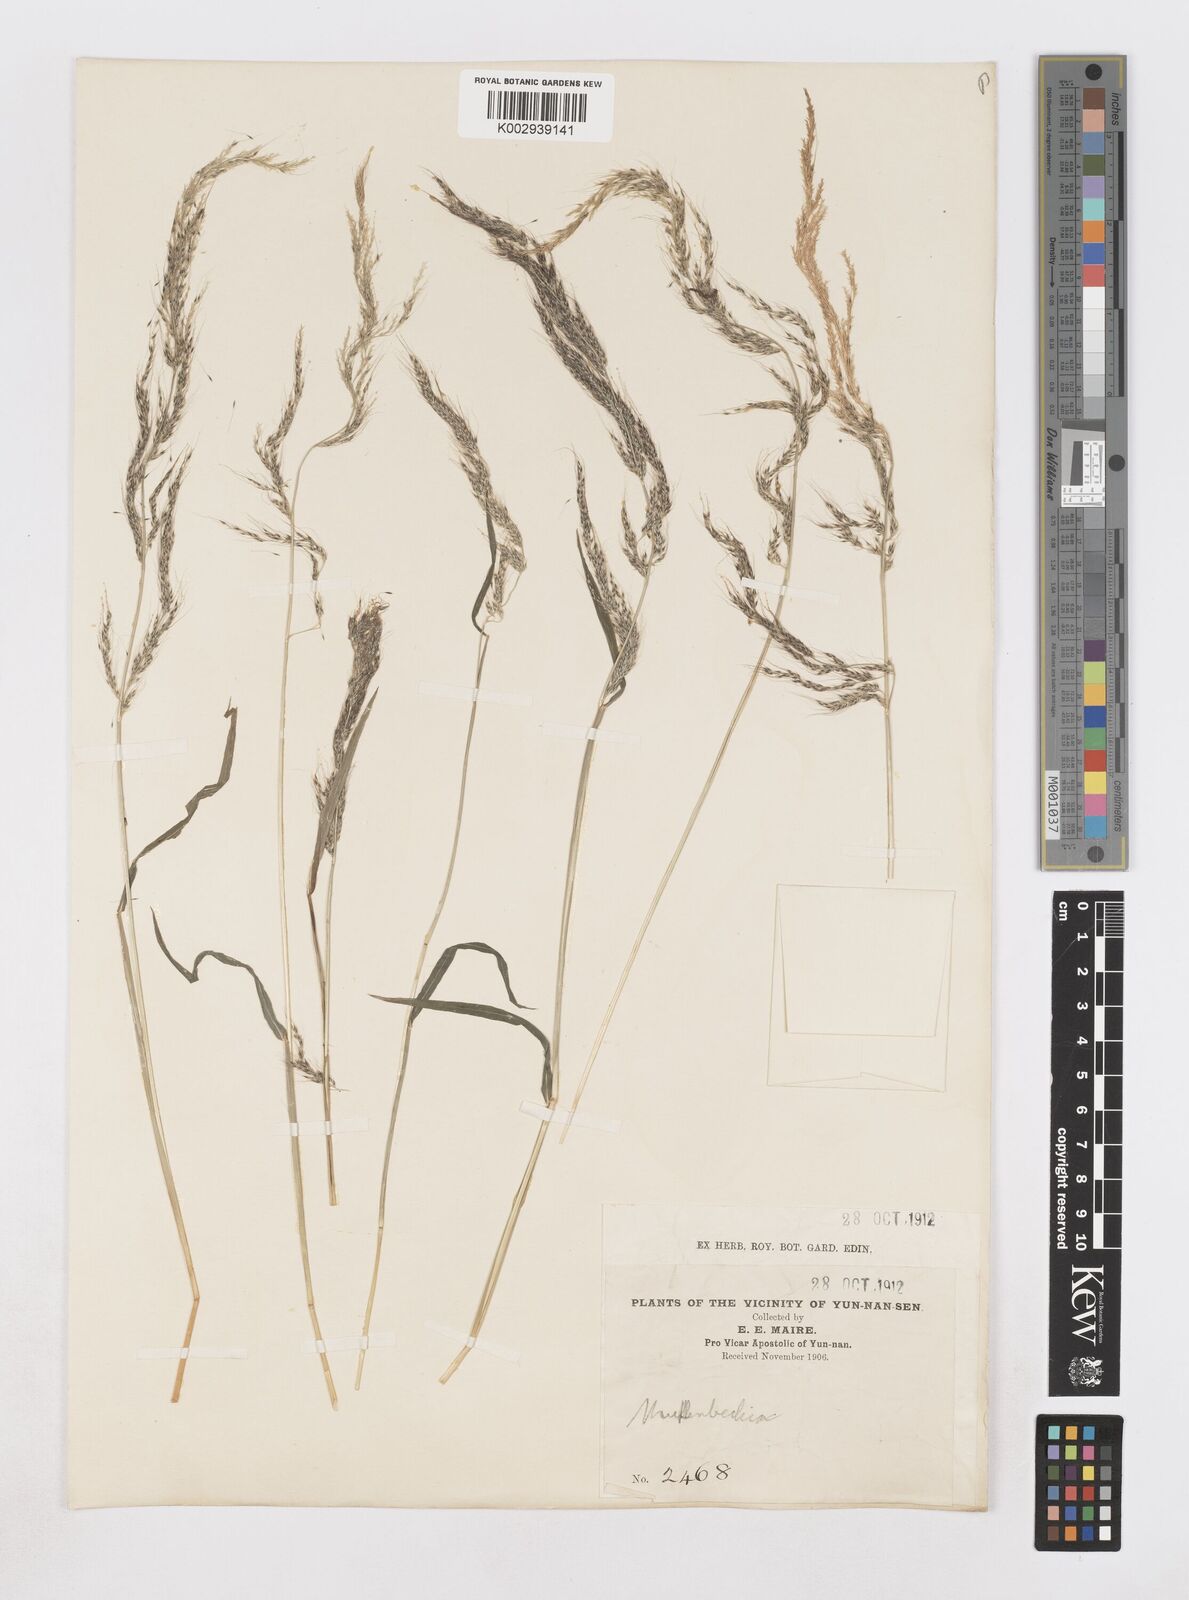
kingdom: Plantae
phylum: Tracheophyta
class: Liliopsida
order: Poales
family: Poaceae
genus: Muhlenbergia
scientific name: Muhlenbergia
